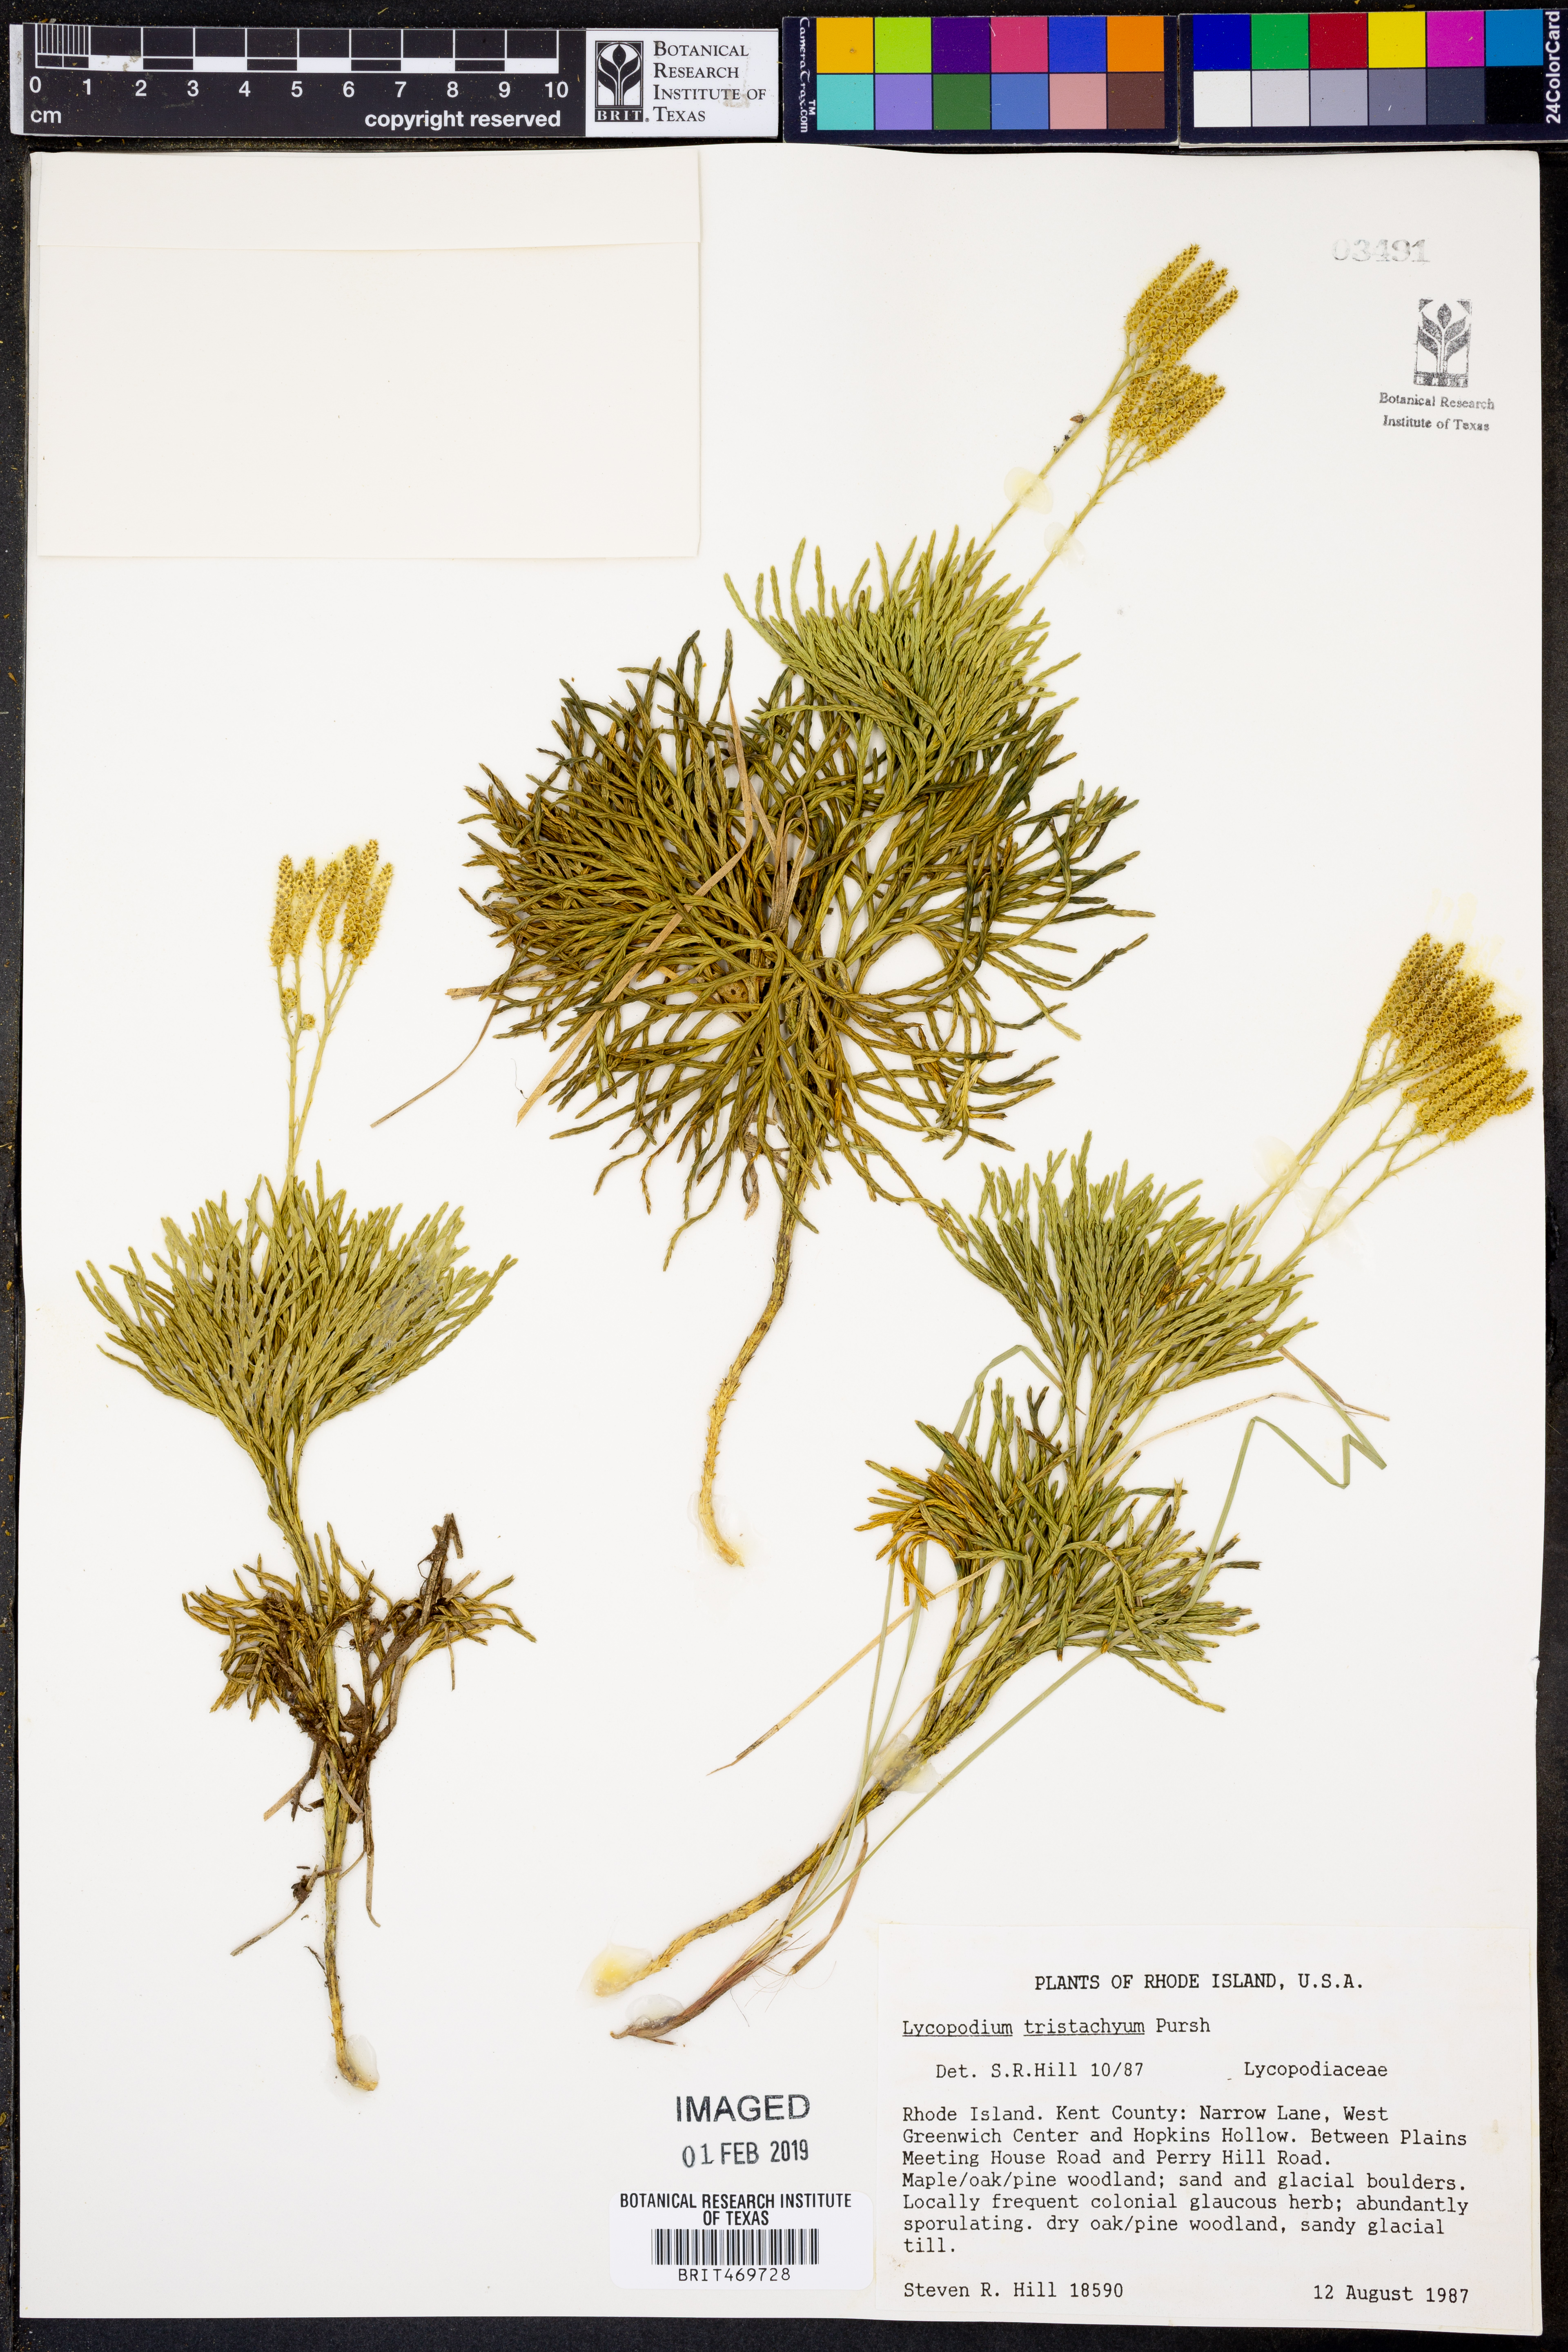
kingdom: Plantae
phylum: Tracheophyta
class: Lycopodiopsida
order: Lycopodiales
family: Lycopodiaceae
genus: Diphasiastrum
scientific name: Diphasiastrum tristachyum
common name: Blue ground-cedar
